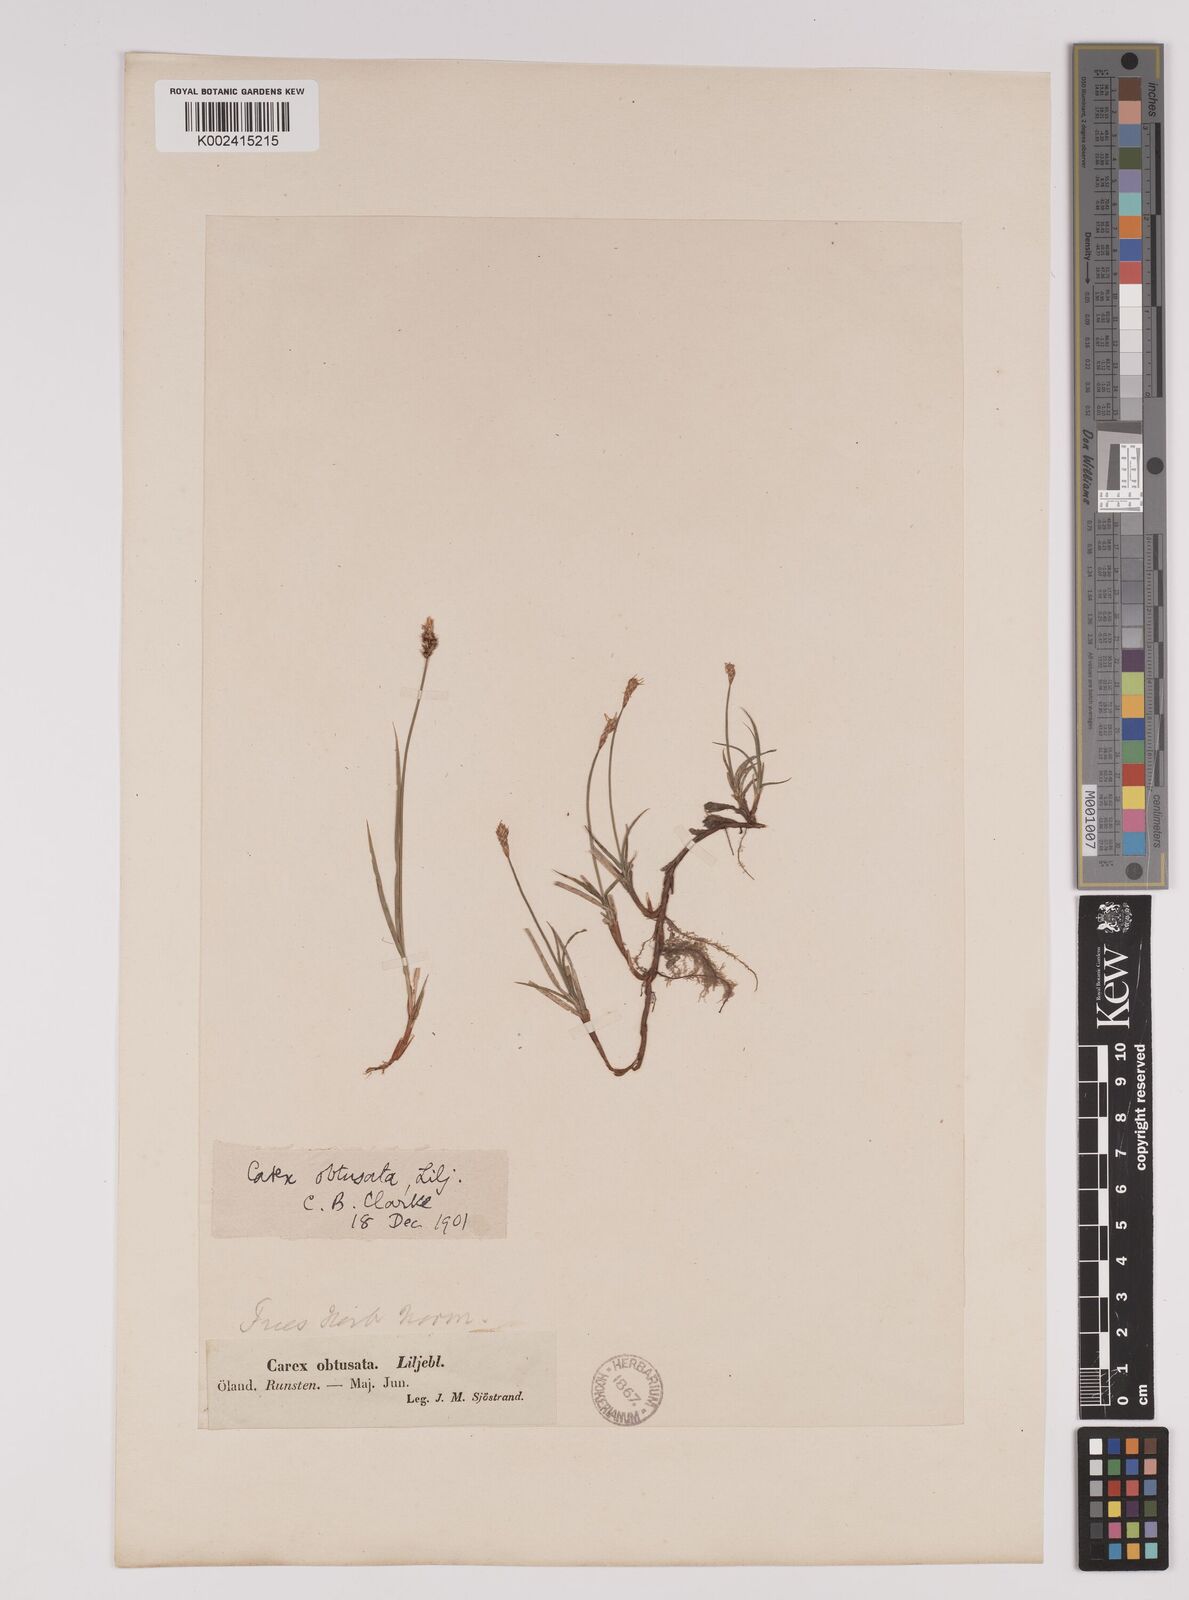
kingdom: Plantae
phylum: Tracheophyta
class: Liliopsida
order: Poales
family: Cyperaceae
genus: Carex
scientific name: Carex obtusata
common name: Blunt sedge
